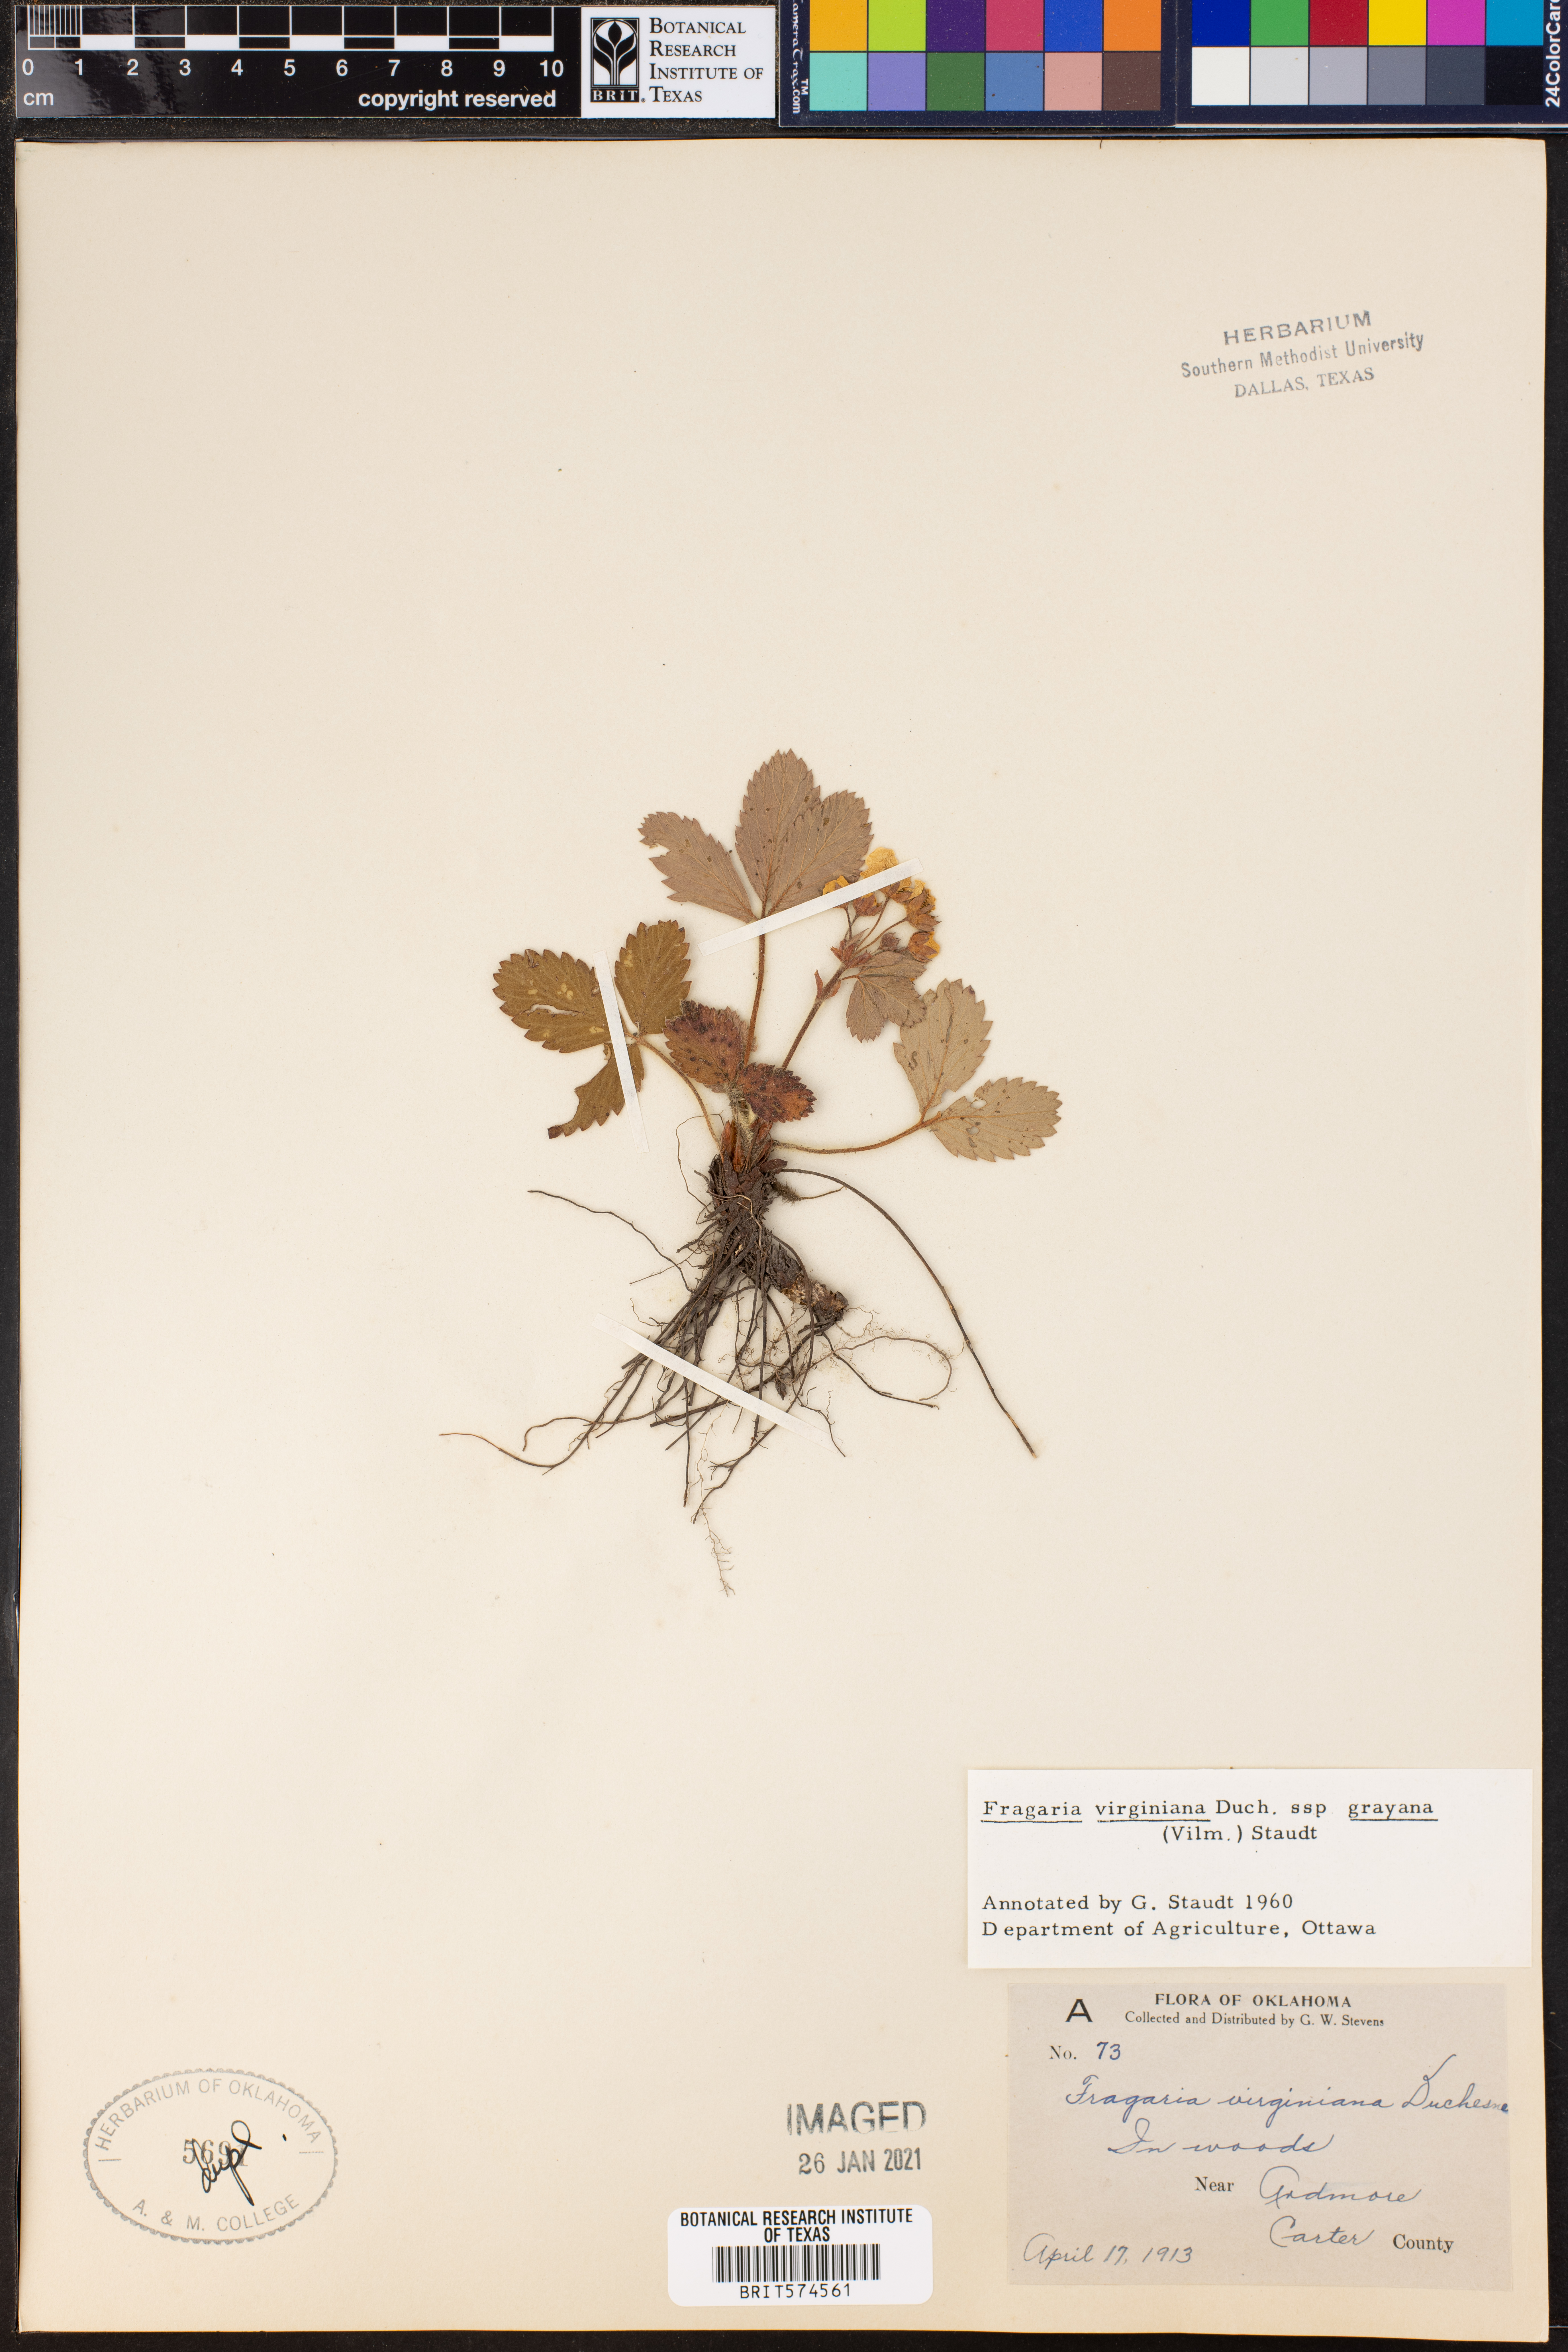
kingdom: Plantae
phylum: Tracheophyta
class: Magnoliopsida
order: Rosales
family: Rosaceae
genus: Fragaria
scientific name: Fragaria virginiana
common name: Thickleaved wild strawberry
